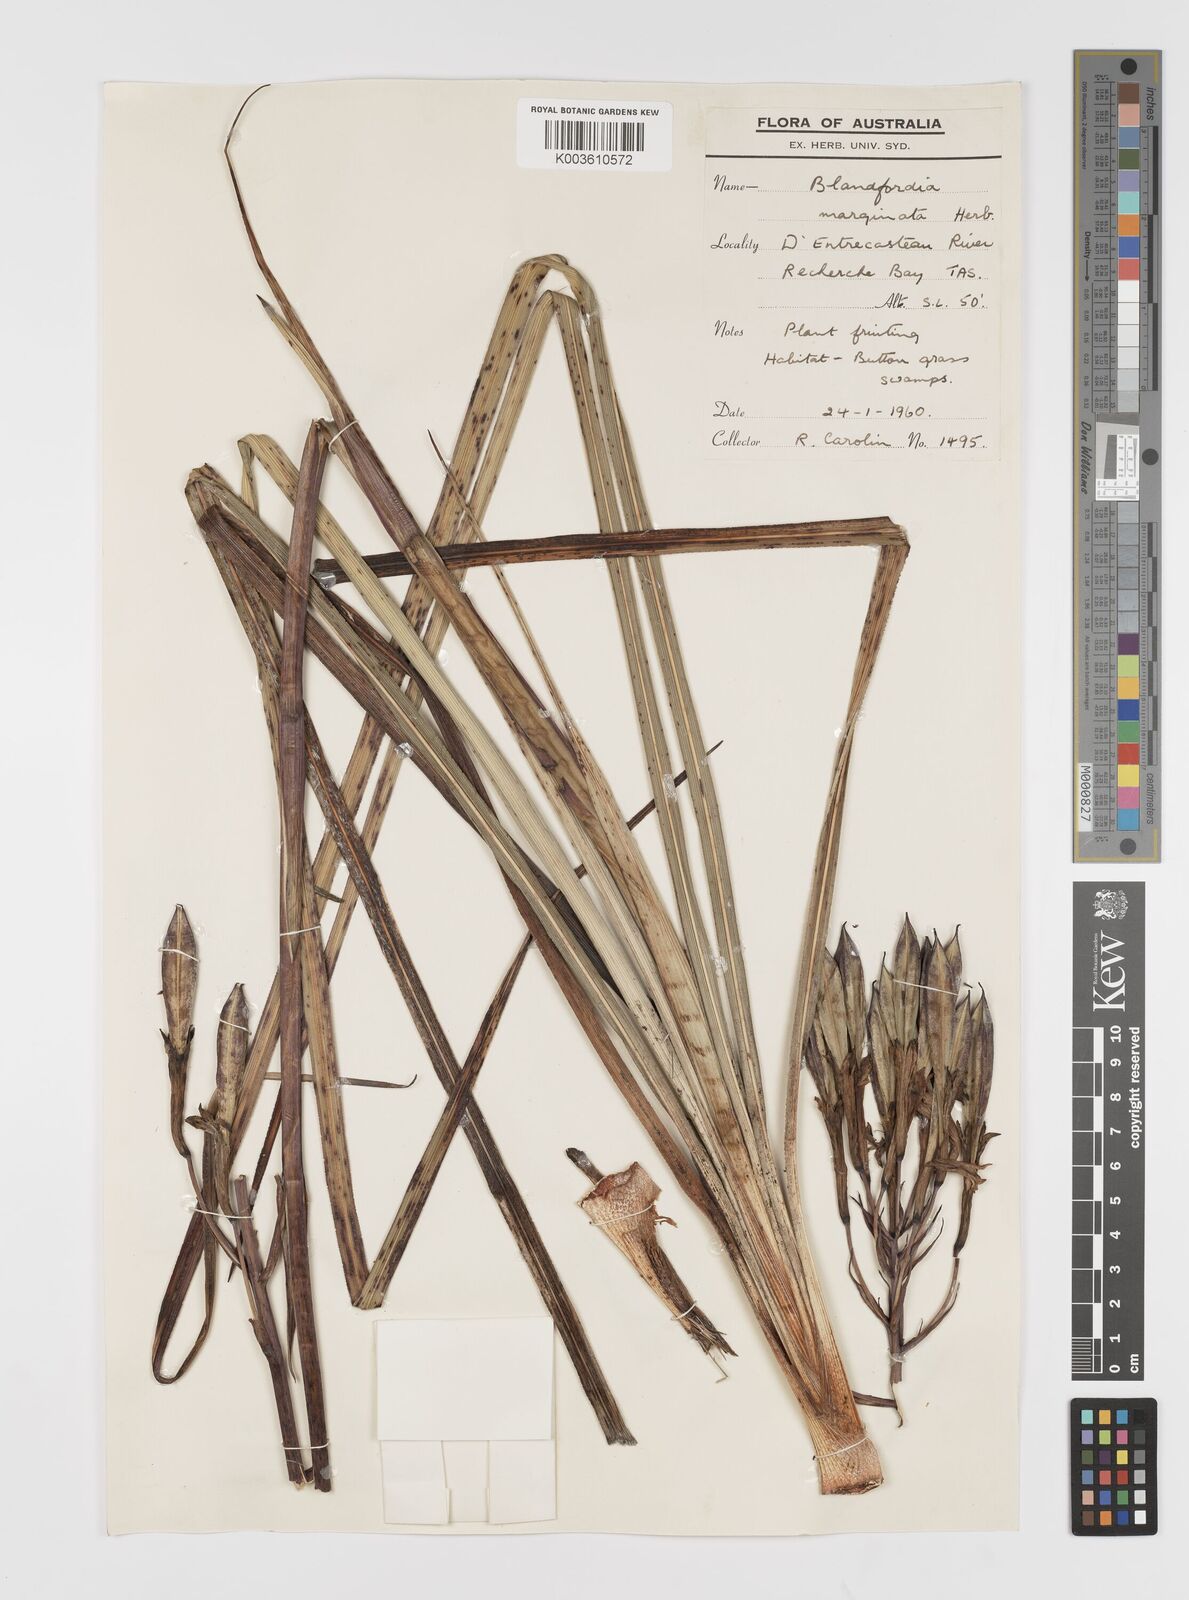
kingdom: Plantae
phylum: Tracheophyta
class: Liliopsida
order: Asparagales
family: Blandfordiaceae
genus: Blandfordia
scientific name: Blandfordia punicea
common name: Tasmanian christmas-bell
